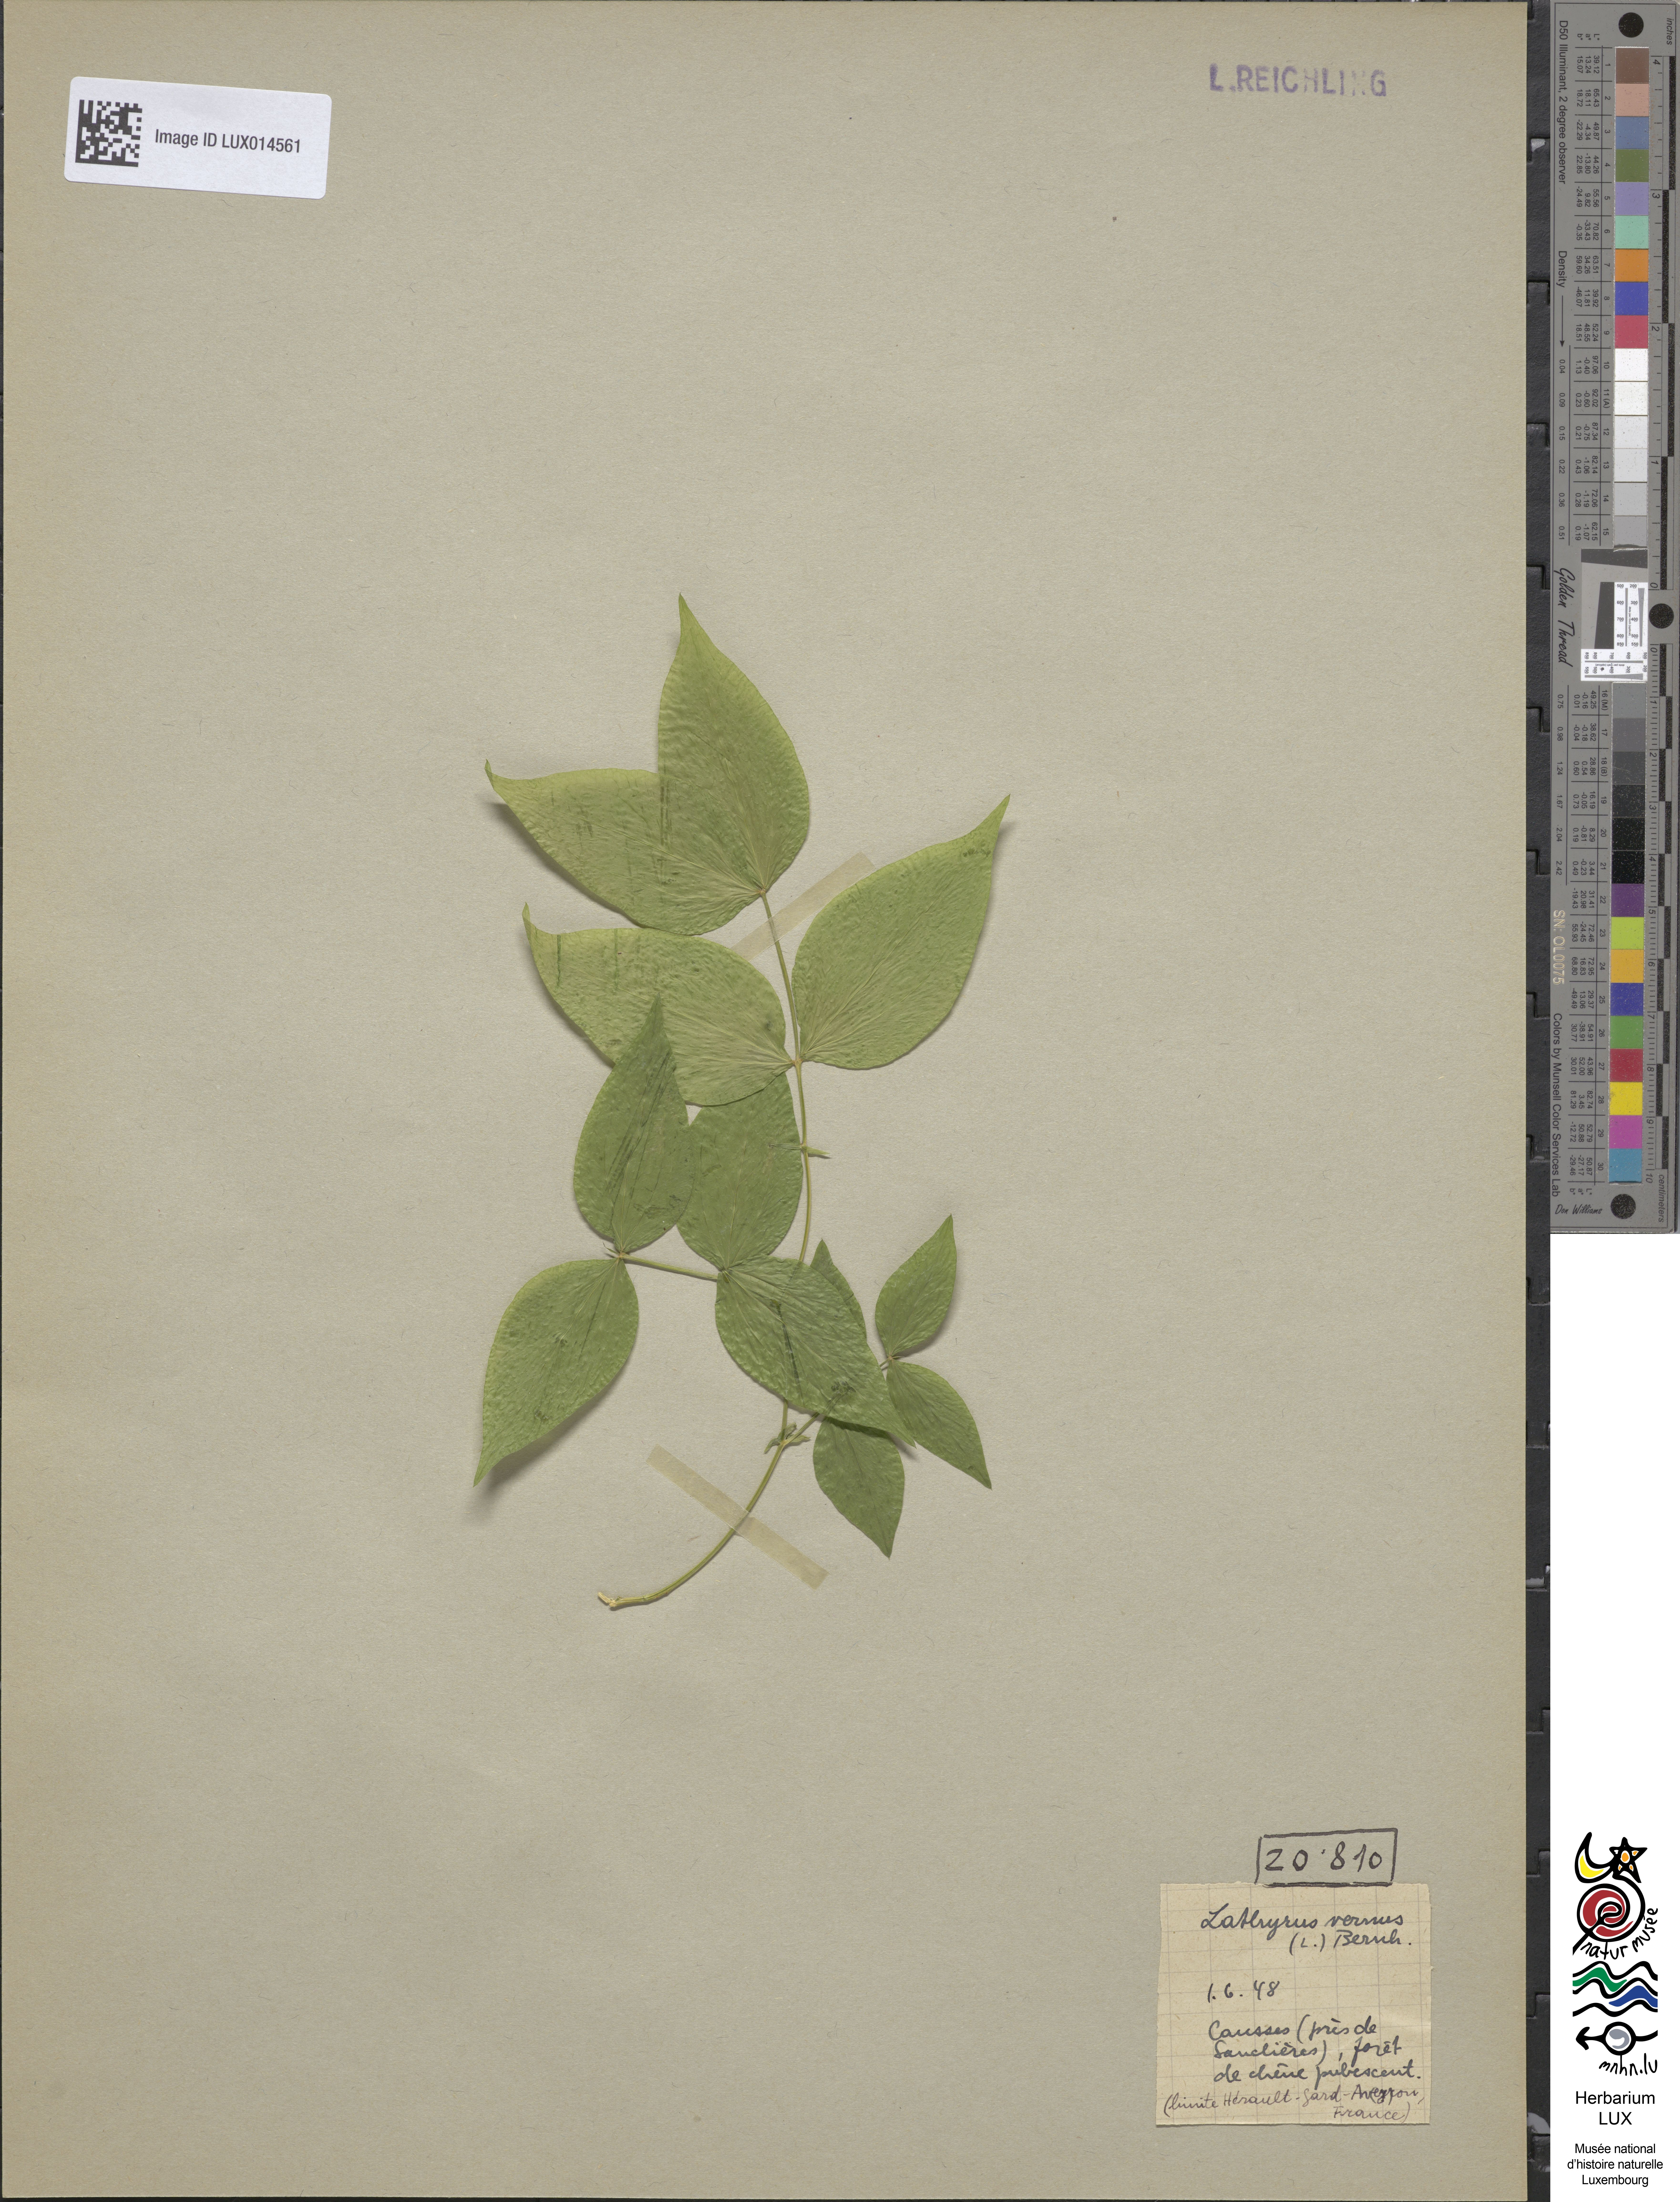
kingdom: Plantae
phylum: Tracheophyta
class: Magnoliopsida
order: Fabales
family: Fabaceae
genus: Lathyrus
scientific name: Lathyrus vernus
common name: Spring pea
